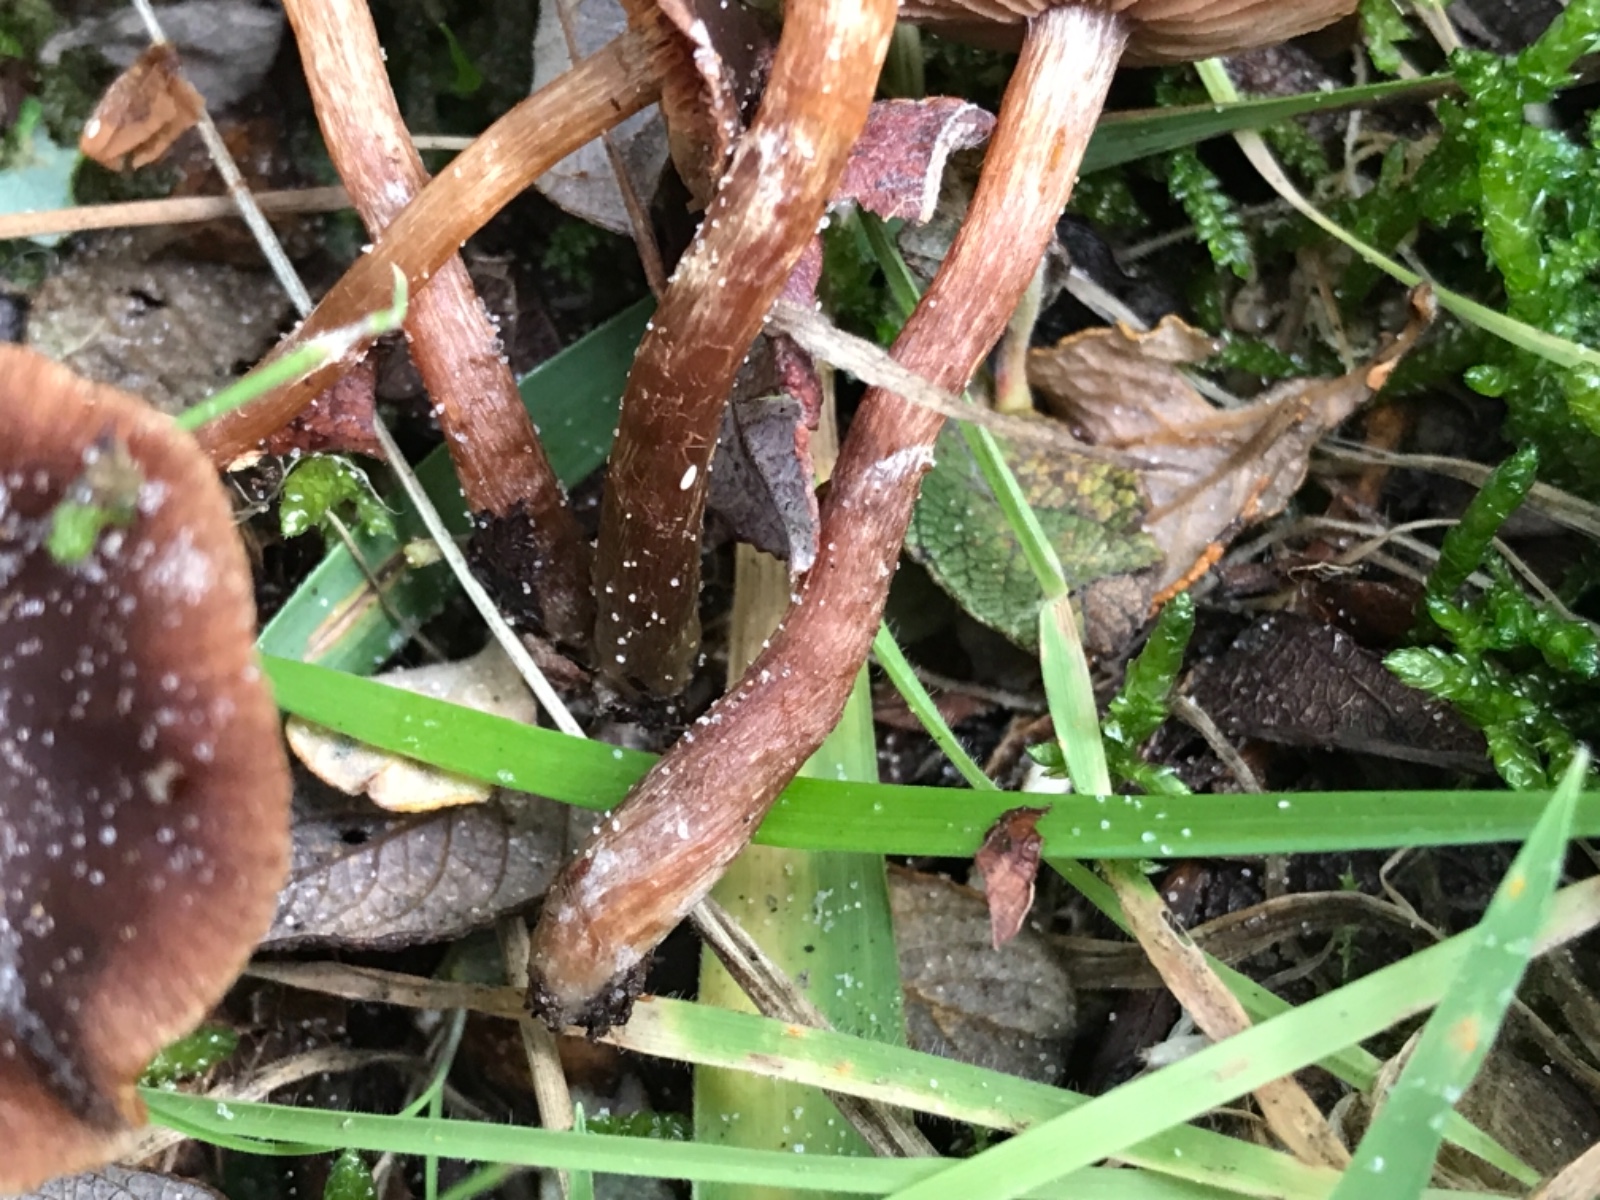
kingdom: Fungi
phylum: Basidiomycota
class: Agaricomycetes
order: Agaricales
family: Cortinariaceae
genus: Cortinarius
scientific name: Cortinarius
